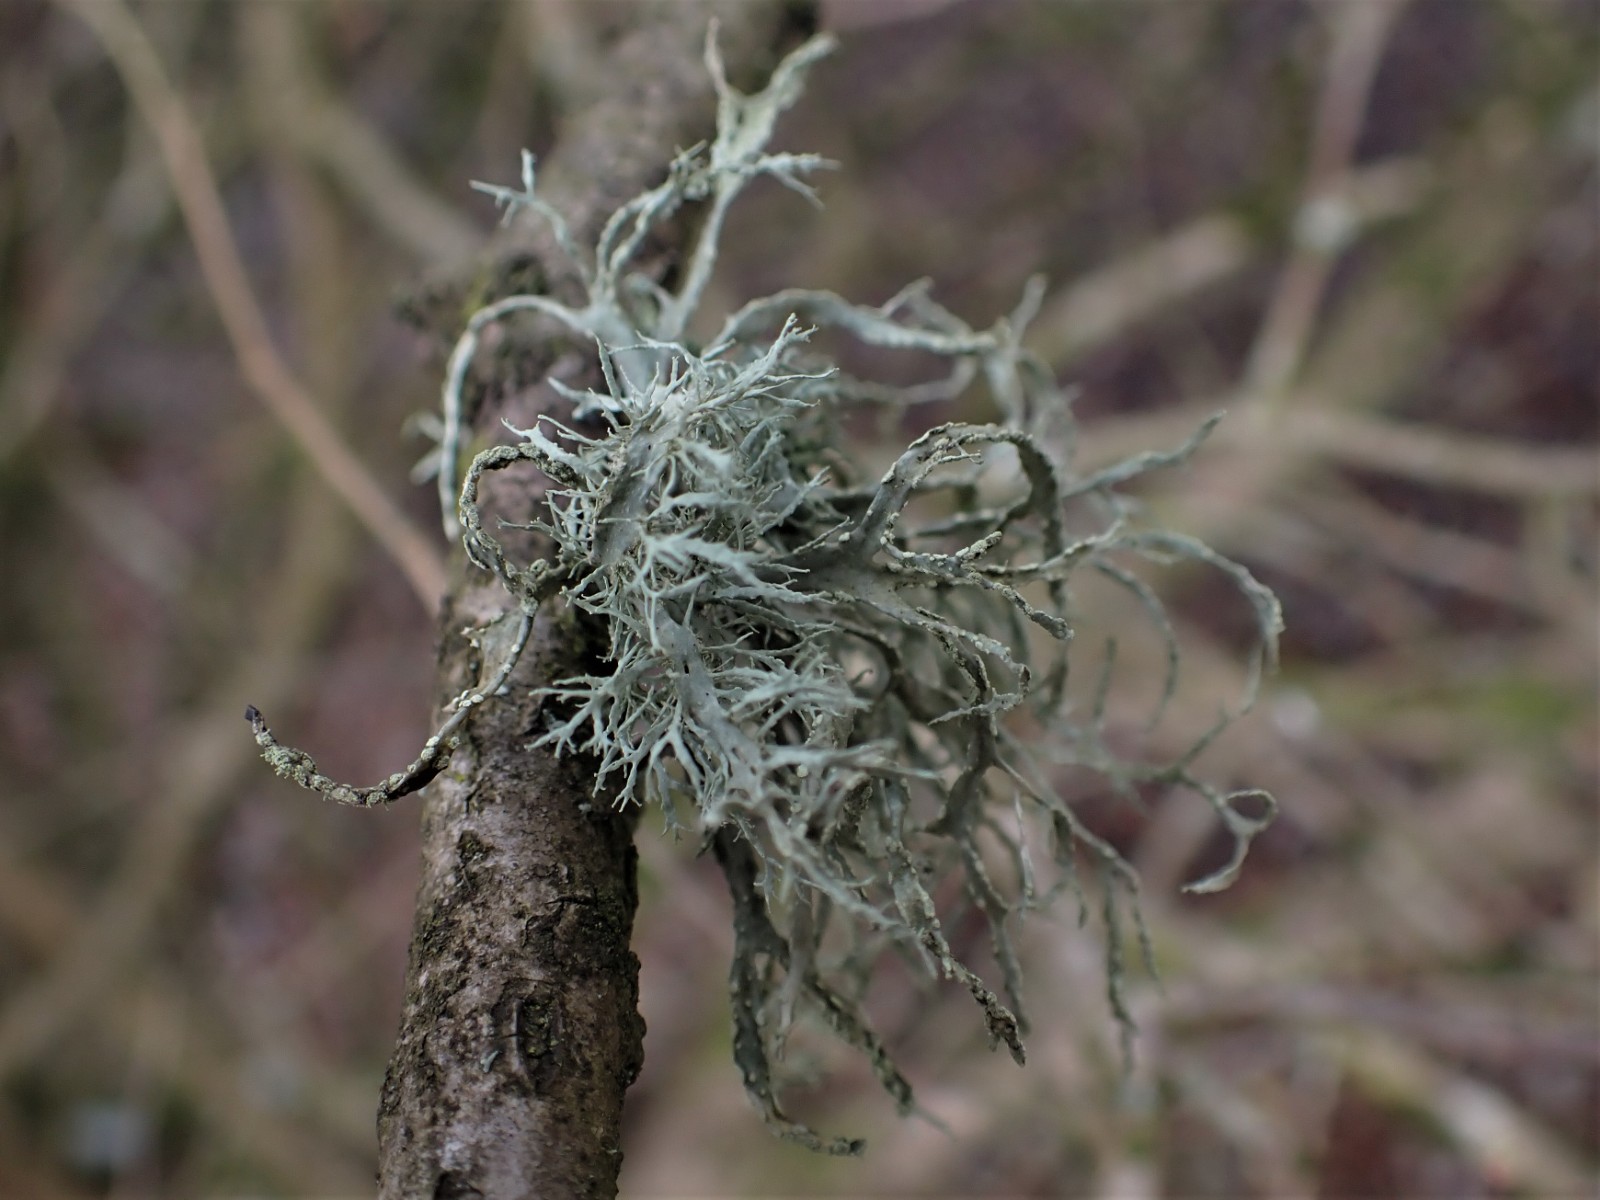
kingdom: Fungi
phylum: Ascomycota
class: Lecanoromycetes
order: Lecanorales
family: Ramalinaceae
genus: Ramalina
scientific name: Ramalina farinacea
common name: melet grenlav
